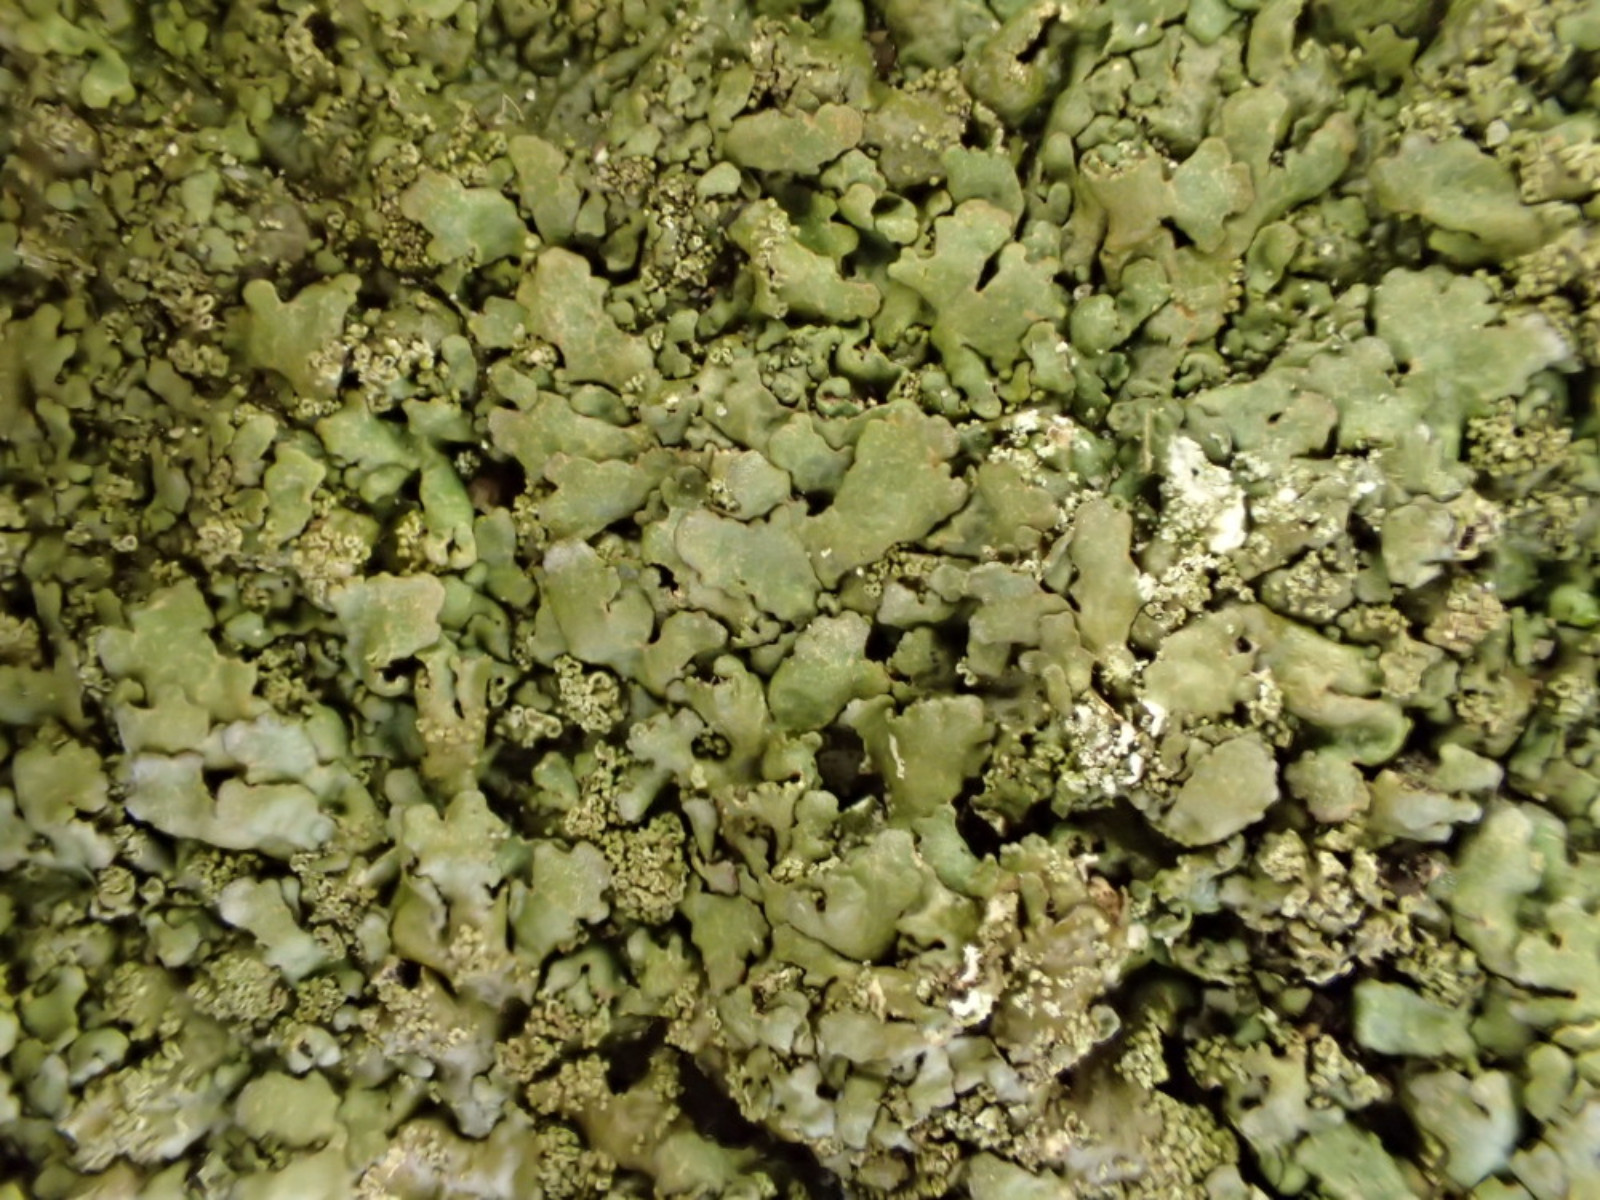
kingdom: Fungi
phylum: Ascomycota
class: Lecanoromycetes
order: Lecanorales
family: Parmeliaceae
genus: Xanthoparmelia
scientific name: Xanthoparmelia verruculifera
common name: småknoppet skållav
